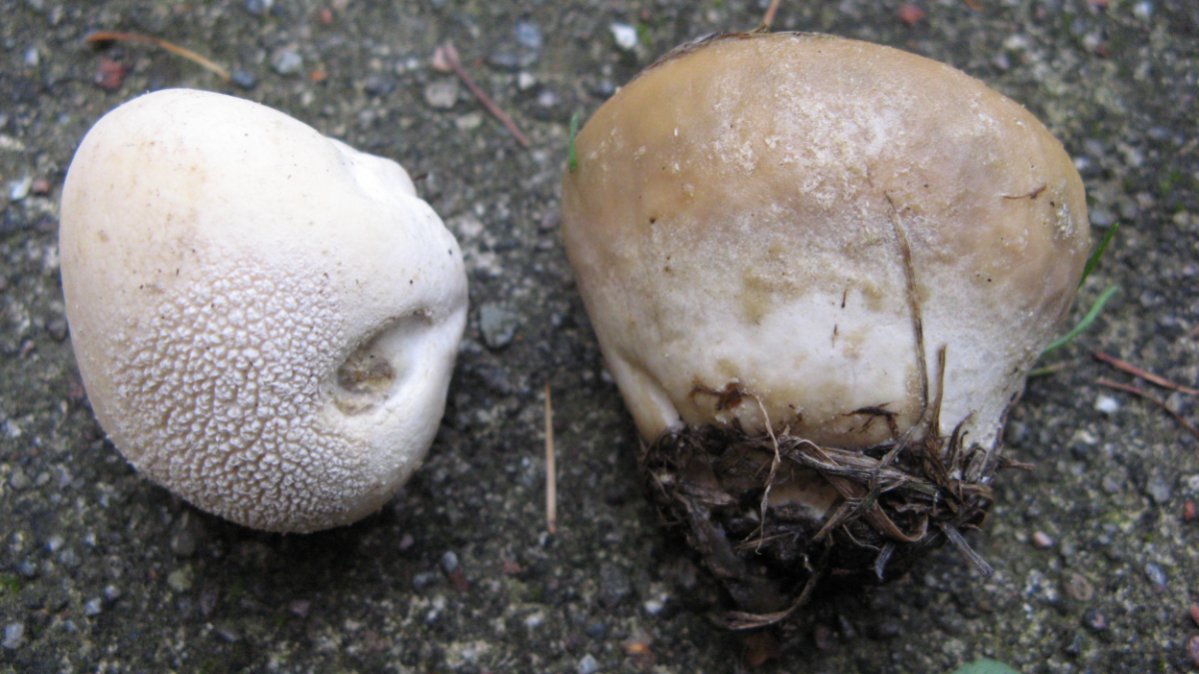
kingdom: Fungi
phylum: Basidiomycota
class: Agaricomycetes
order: Agaricales
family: Lycoperdaceae
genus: Lycoperdon
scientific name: Lycoperdon pratense
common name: flad støvbold
